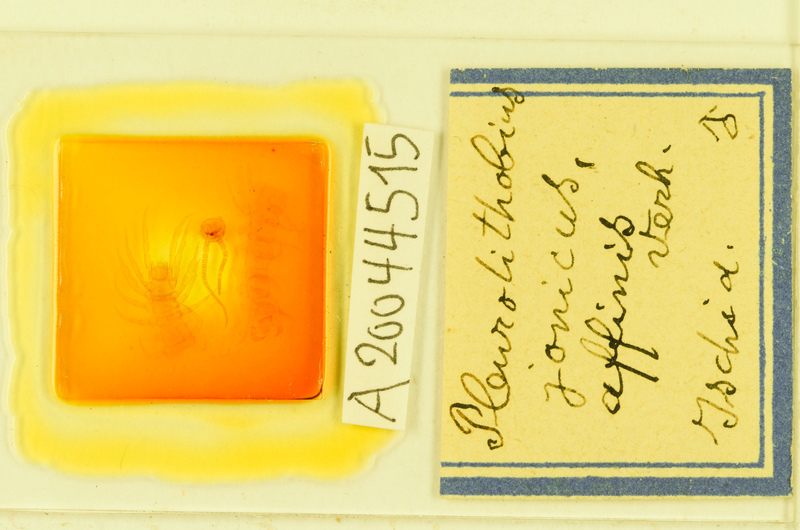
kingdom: Animalia
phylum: Arthropoda
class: Chilopoda
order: Lithobiomorpha
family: Lithobiidae
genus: Pleurolithobius
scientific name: Pleurolithobius
